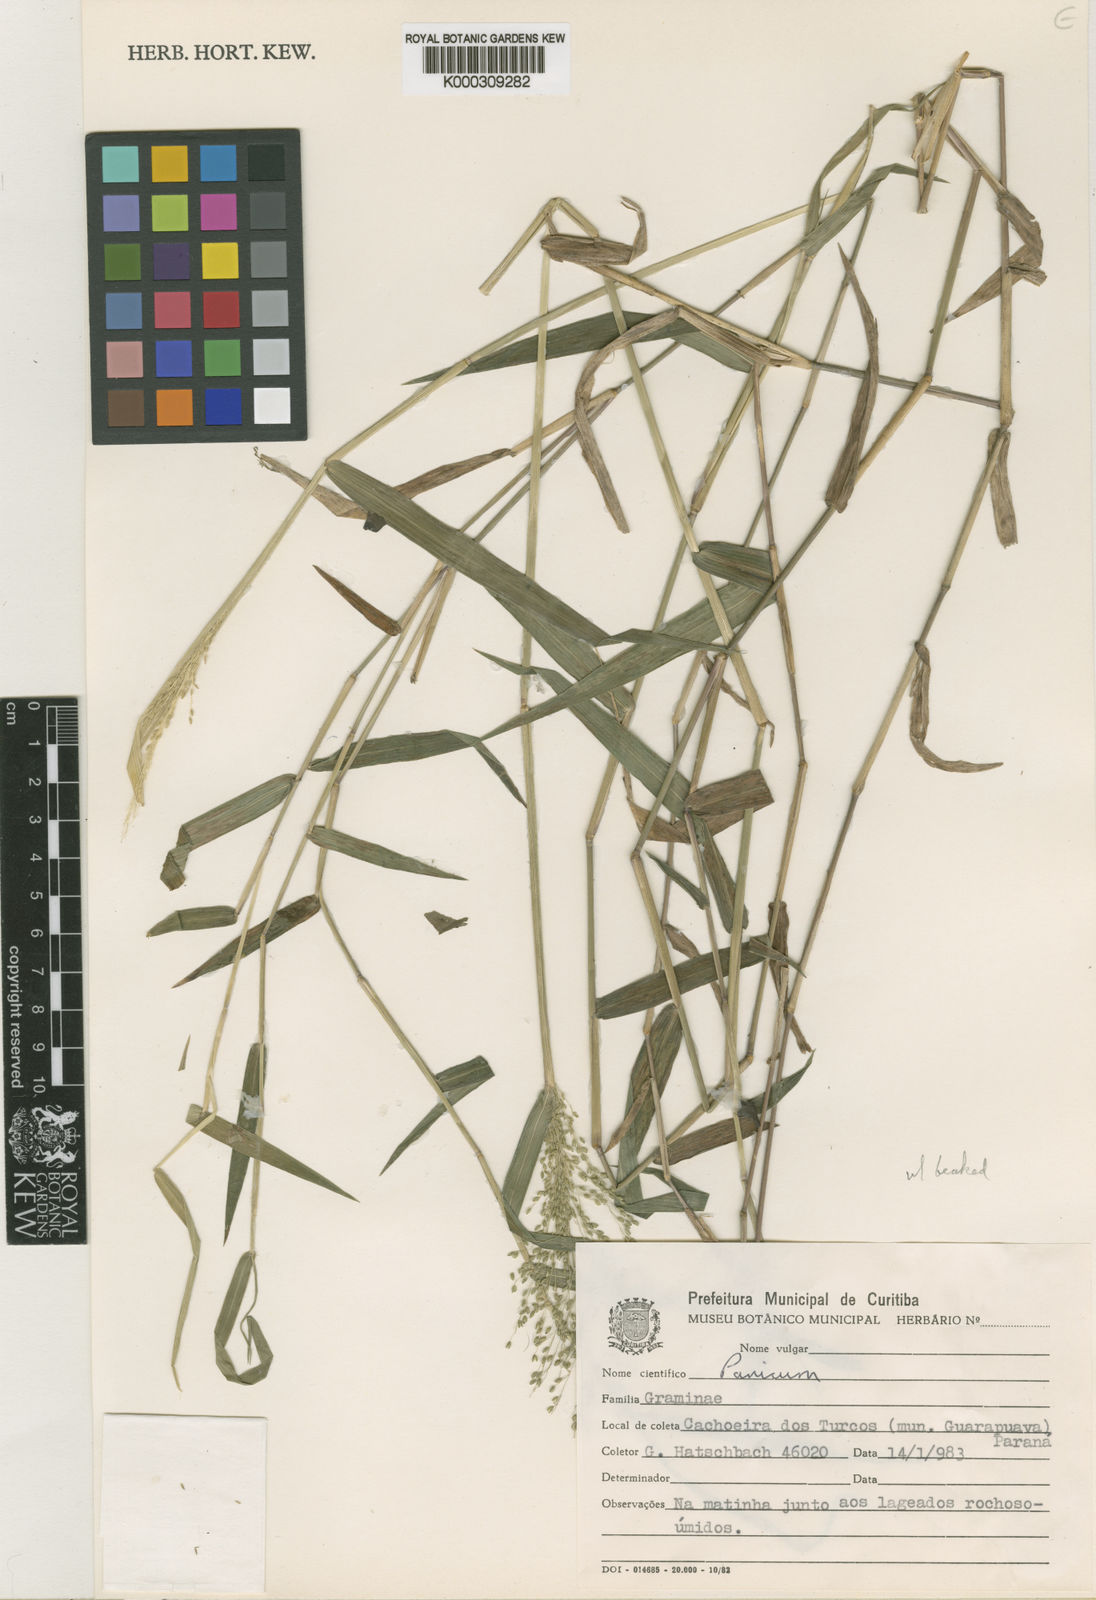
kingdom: Plantae
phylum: Tracheophyta
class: Liliopsida
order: Poales
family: Poaceae
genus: Dichanthelium
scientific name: Dichanthelium hebotes
